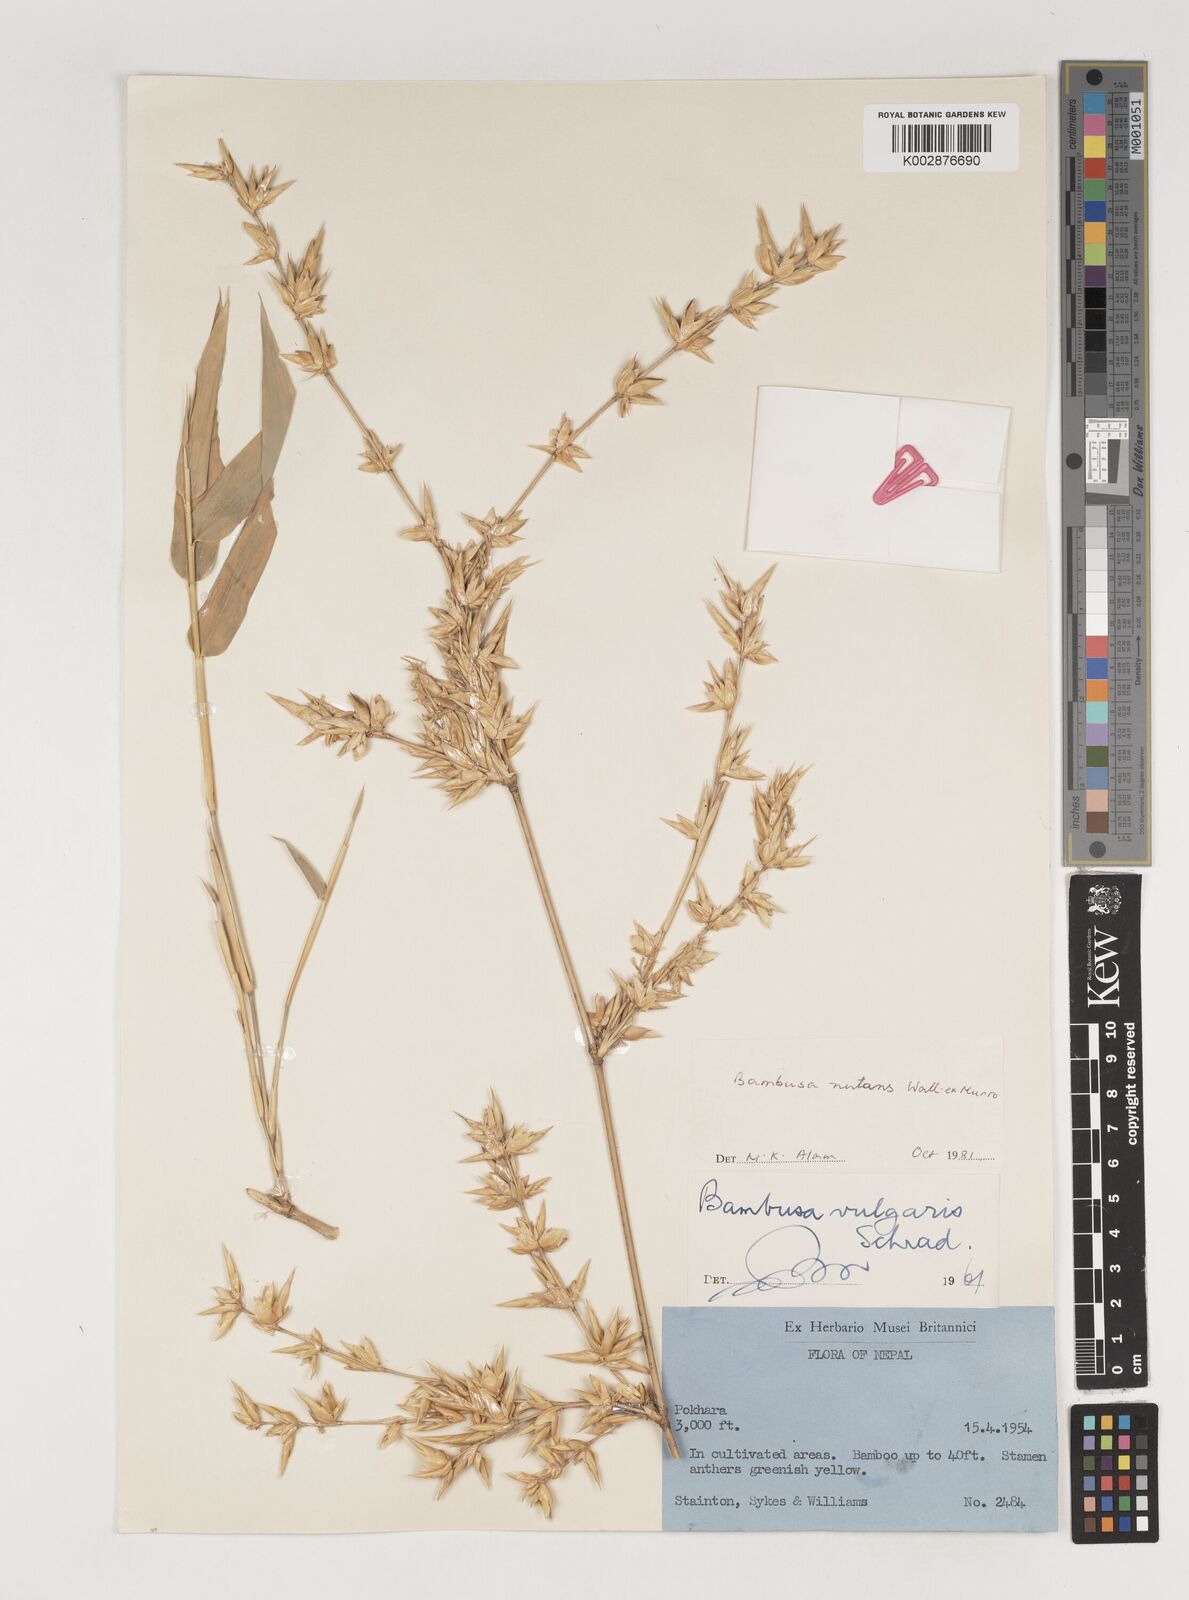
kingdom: Plantae
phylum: Tracheophyta
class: Liliopsida
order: Poales
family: Poaceae
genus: Bambusa
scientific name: Bambusa
